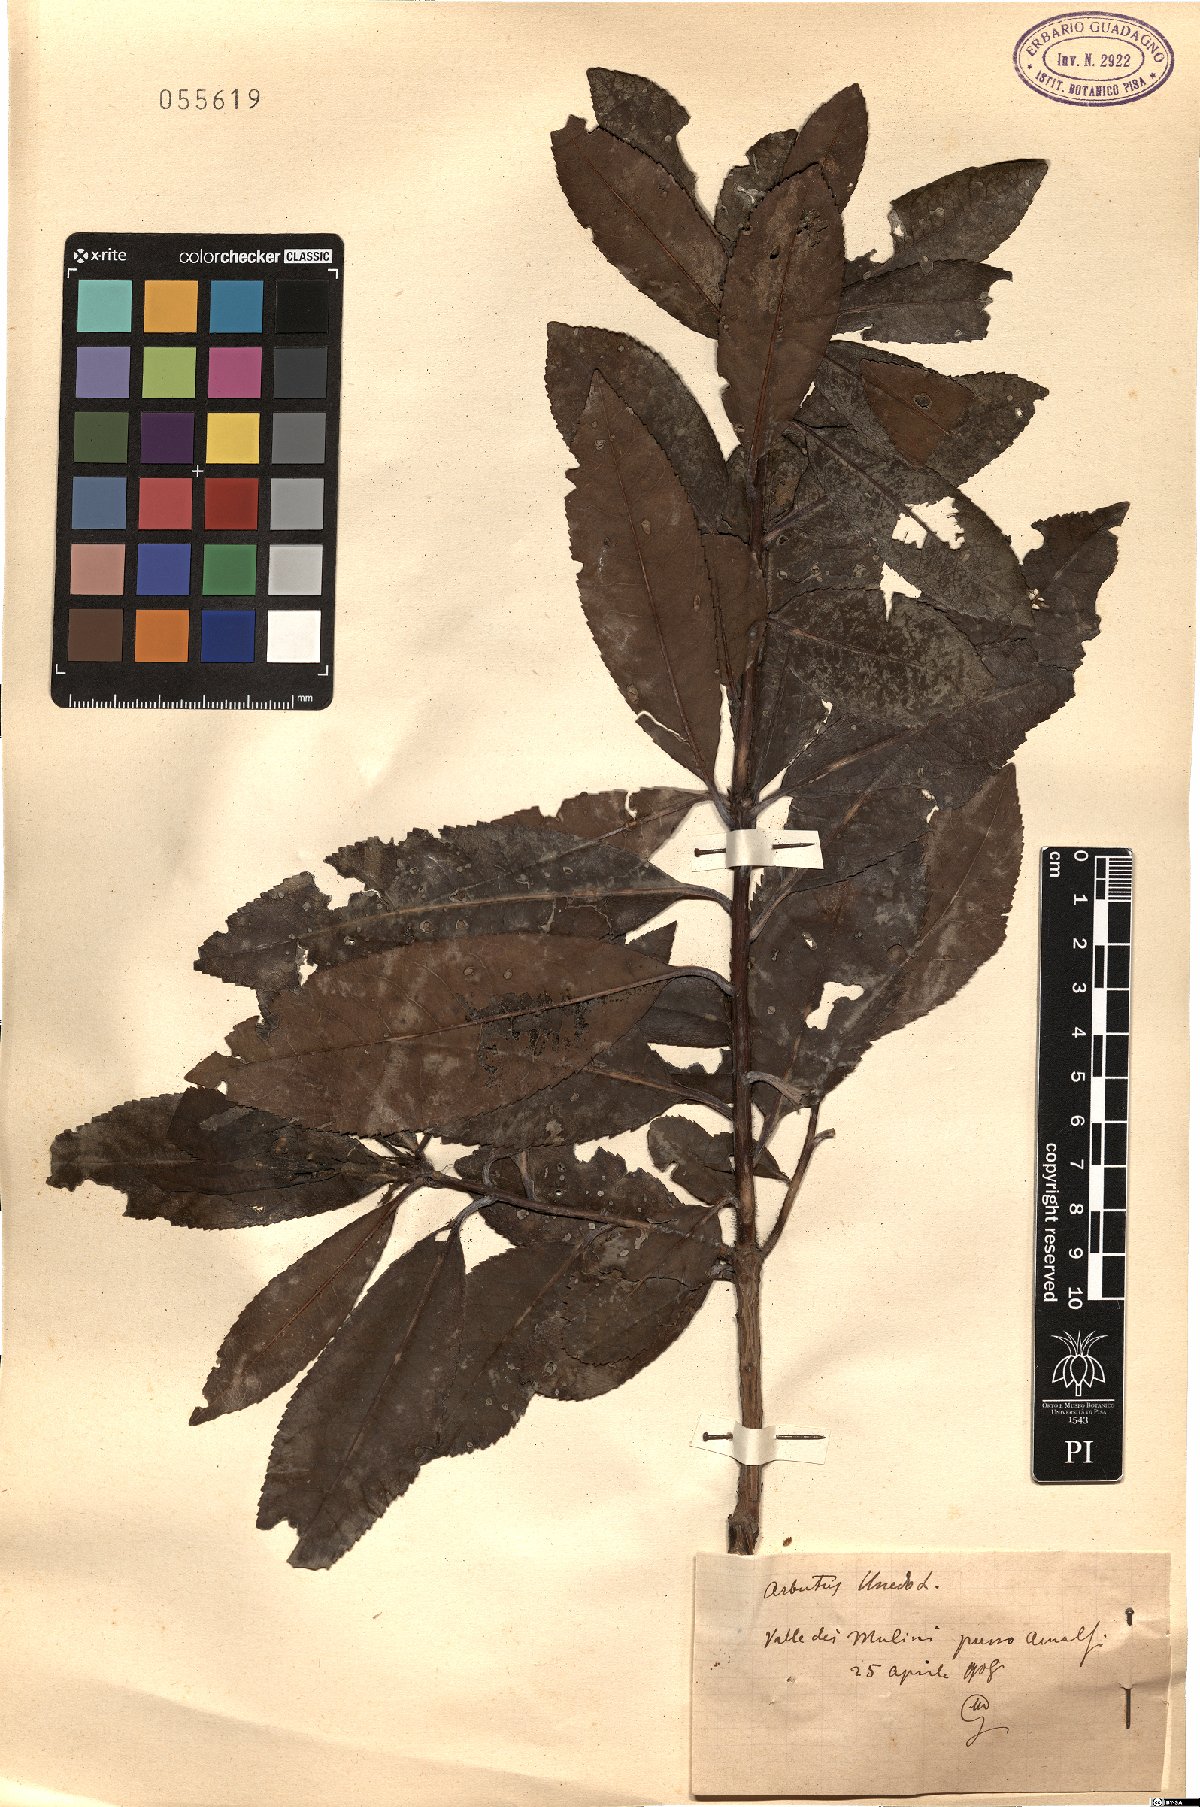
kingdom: Plantae
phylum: Tracheophyta
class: Magnoliopsida
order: Ericales
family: Ericaceae
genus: Arbutus
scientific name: Arbutus unedo
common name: Strawberry-tree
